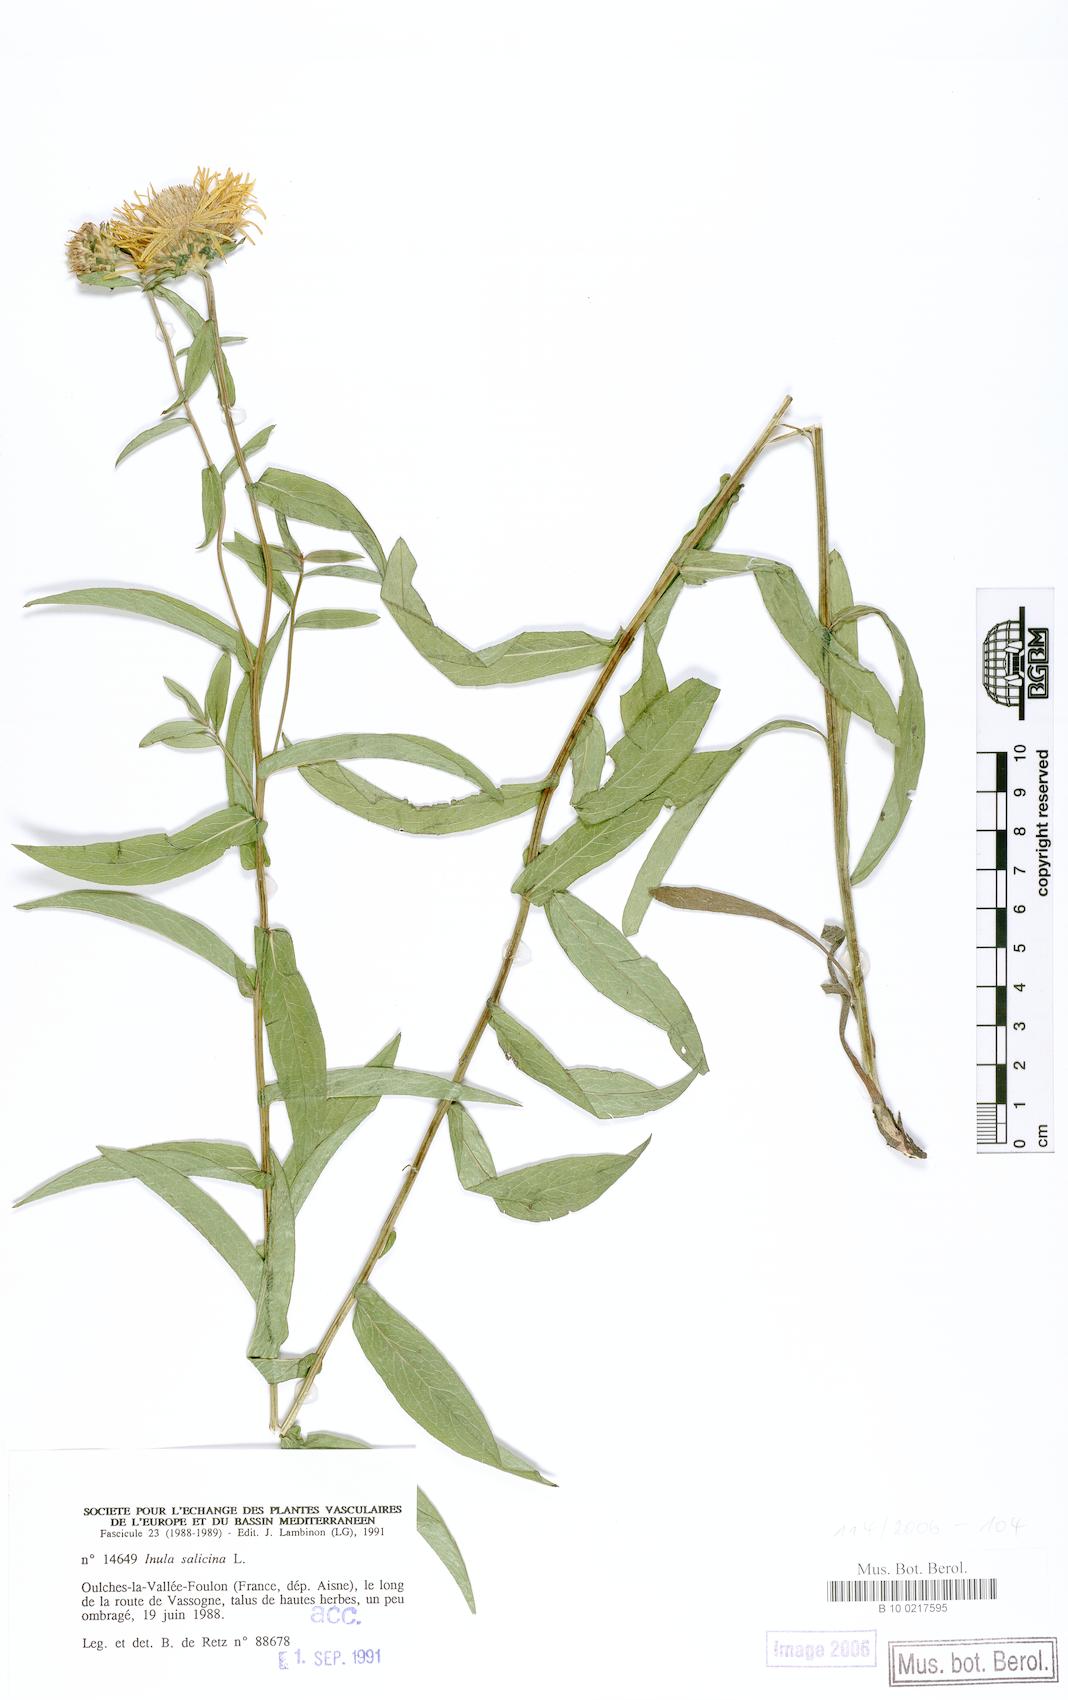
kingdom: Plantae
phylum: Tracheophyta
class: Magnoliopsida
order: Asterales
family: Asteraceae
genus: Pentanema
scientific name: Pentanema salicinum
